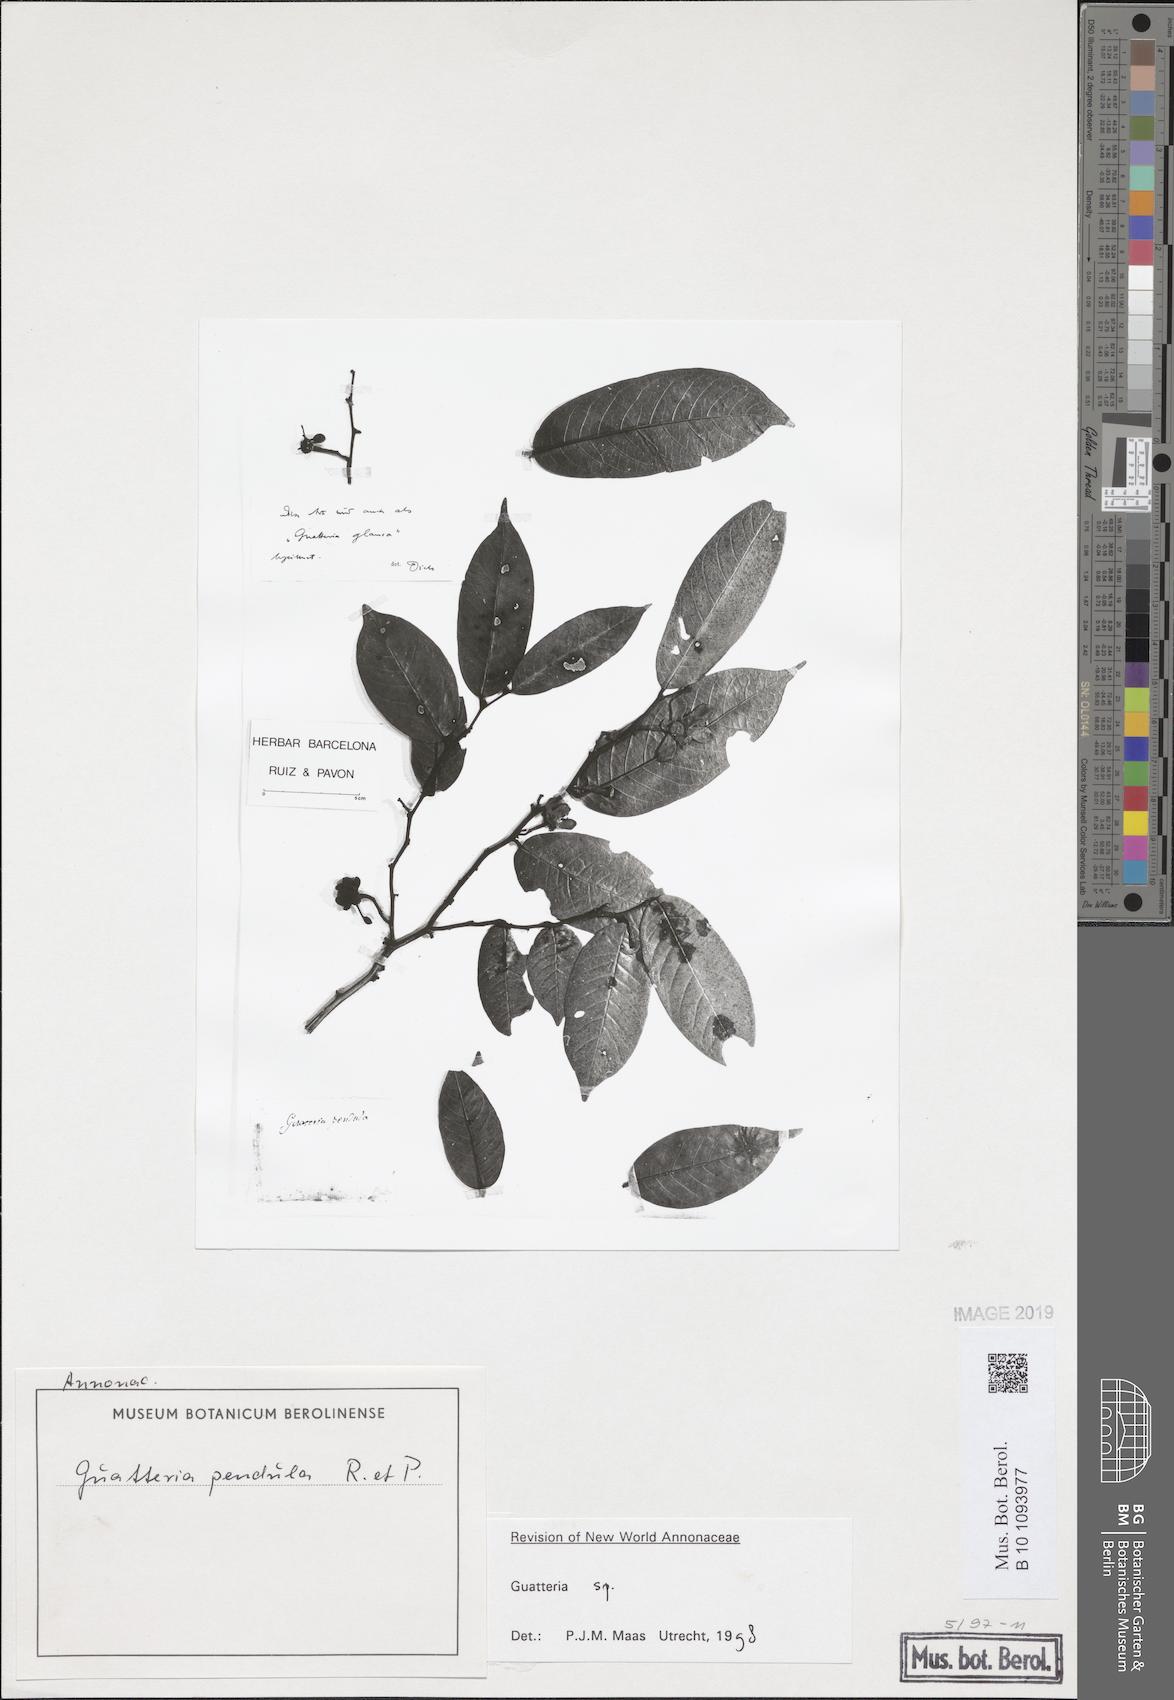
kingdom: Plantae
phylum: Tracheophyta
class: Magnoliopsida
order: Magnoliales
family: Annonaceae
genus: Guatteria
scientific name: Guatteria
